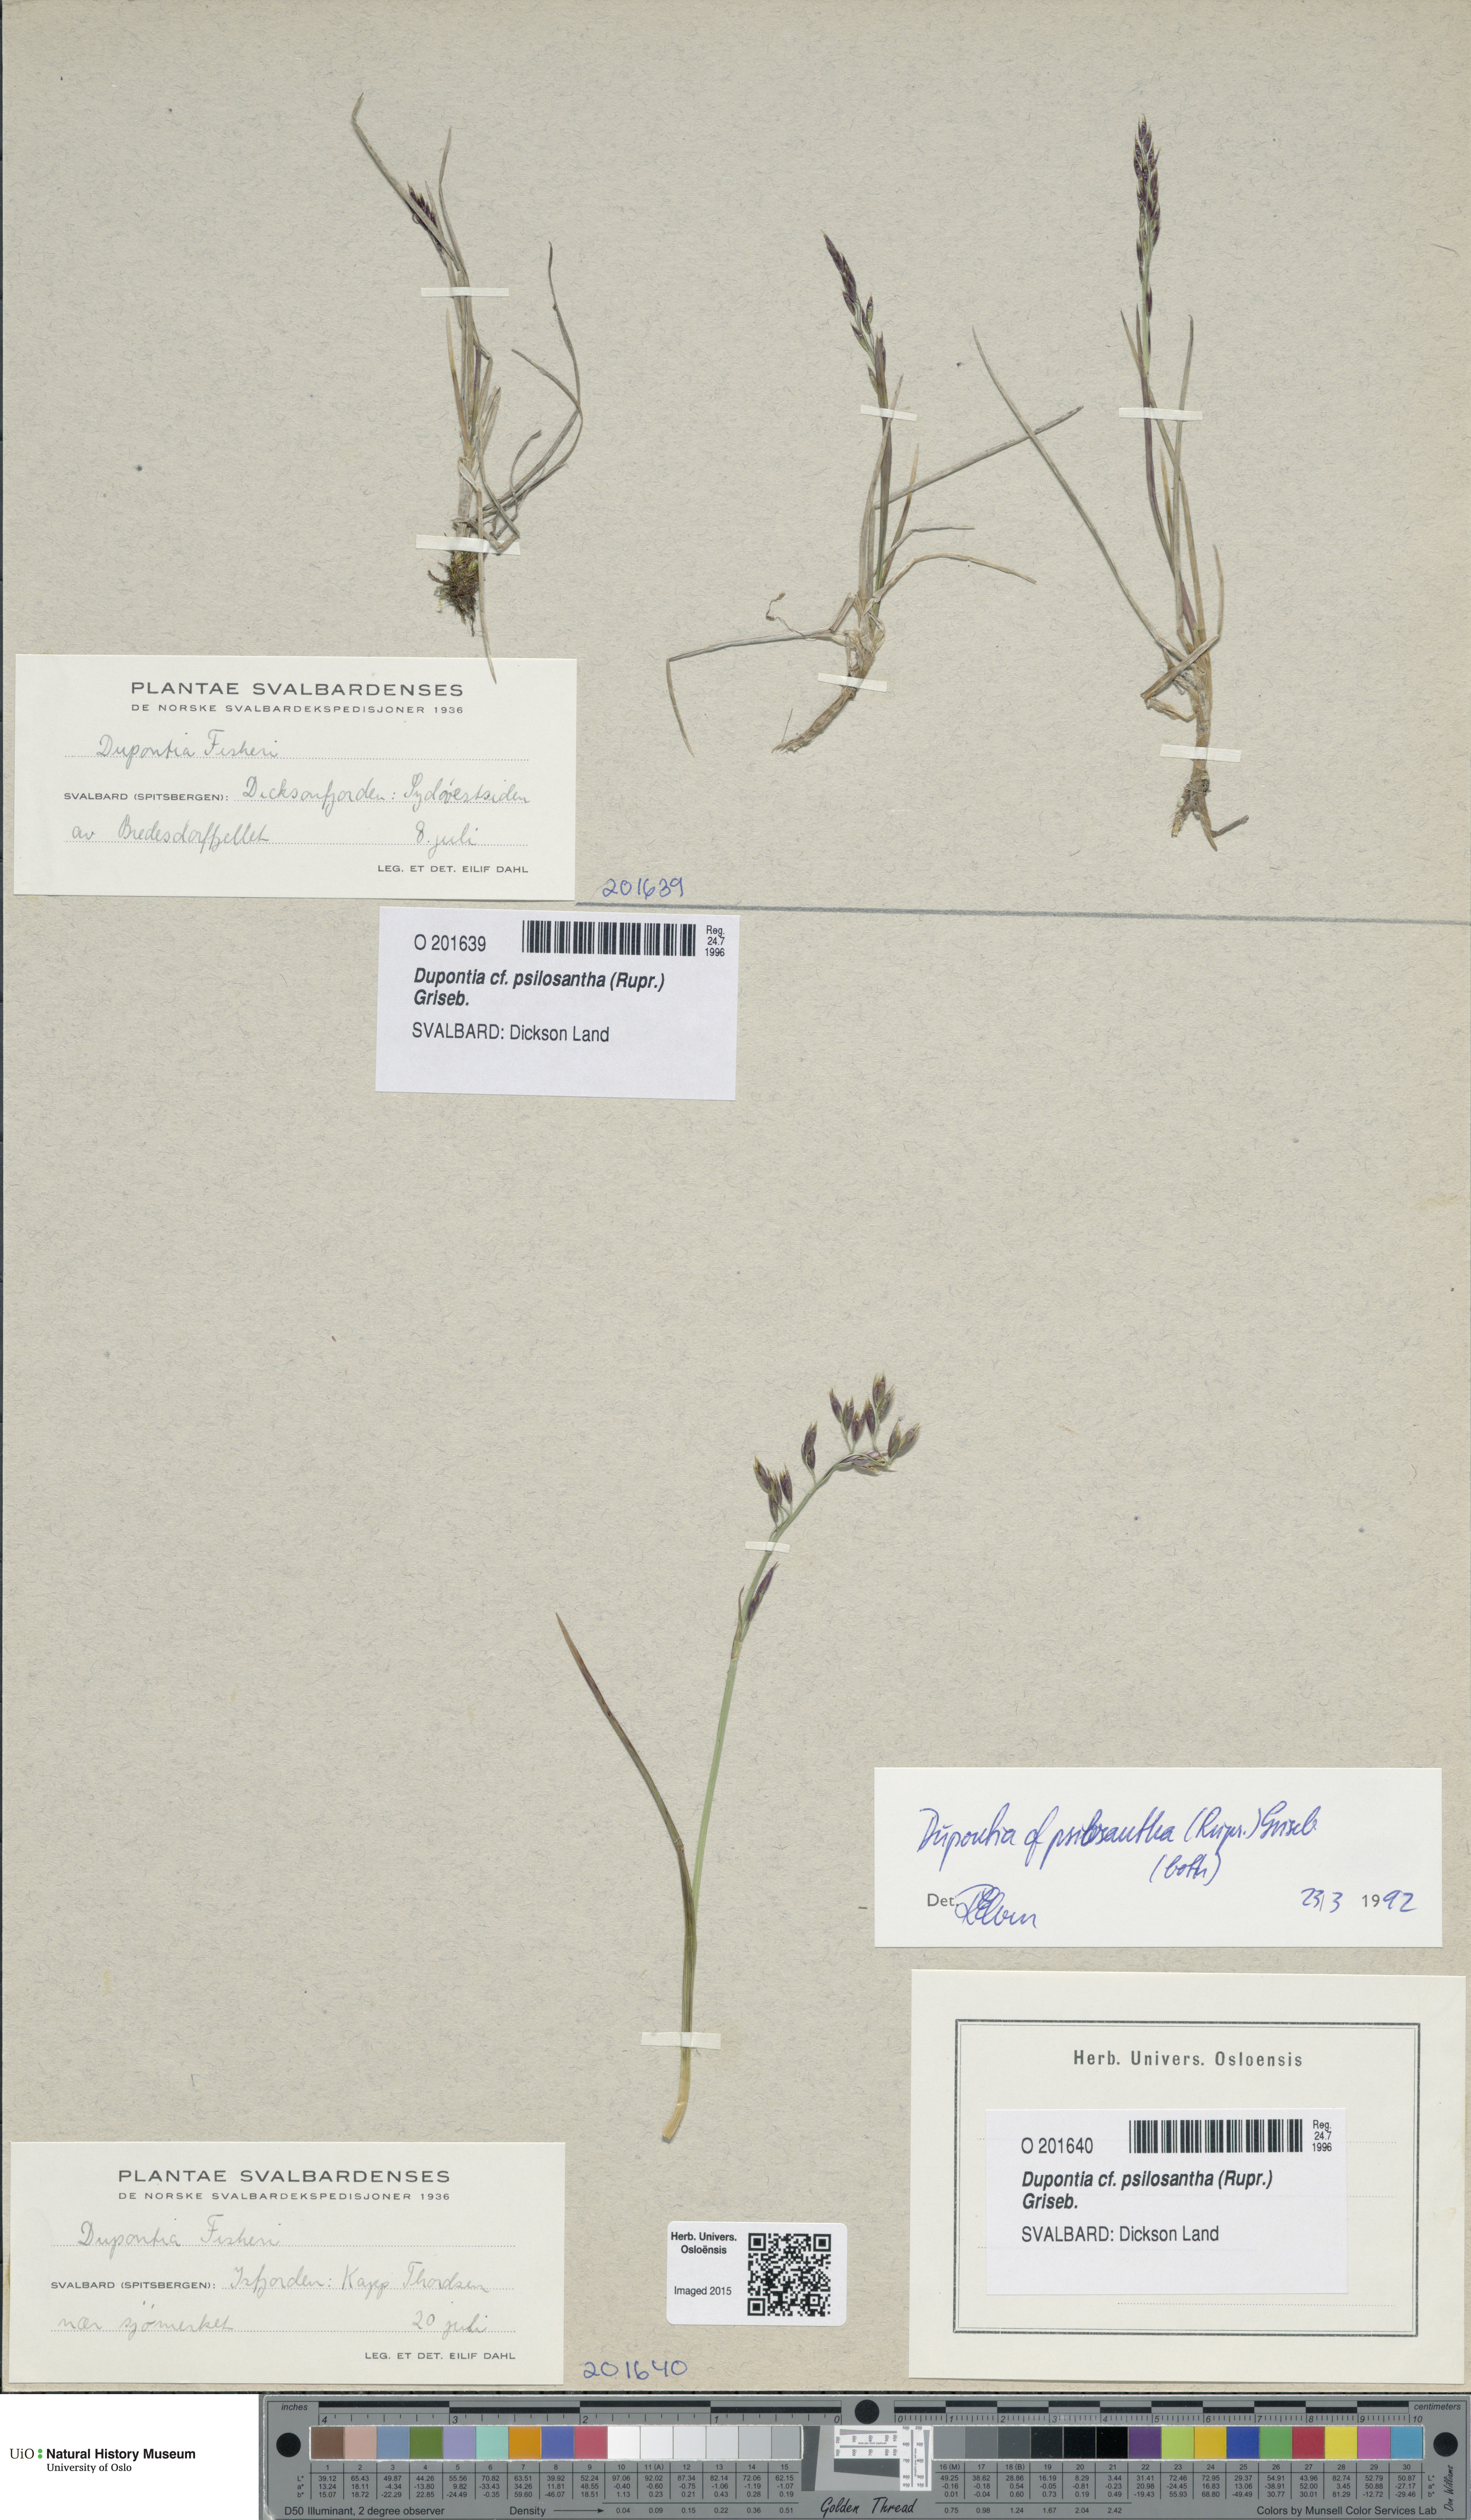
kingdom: Plantae
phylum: Tracheophyta
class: Liliopsida
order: Poales
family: Poaceae
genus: Dupontia
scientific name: Dupontia fisheri
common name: Tundra grass
